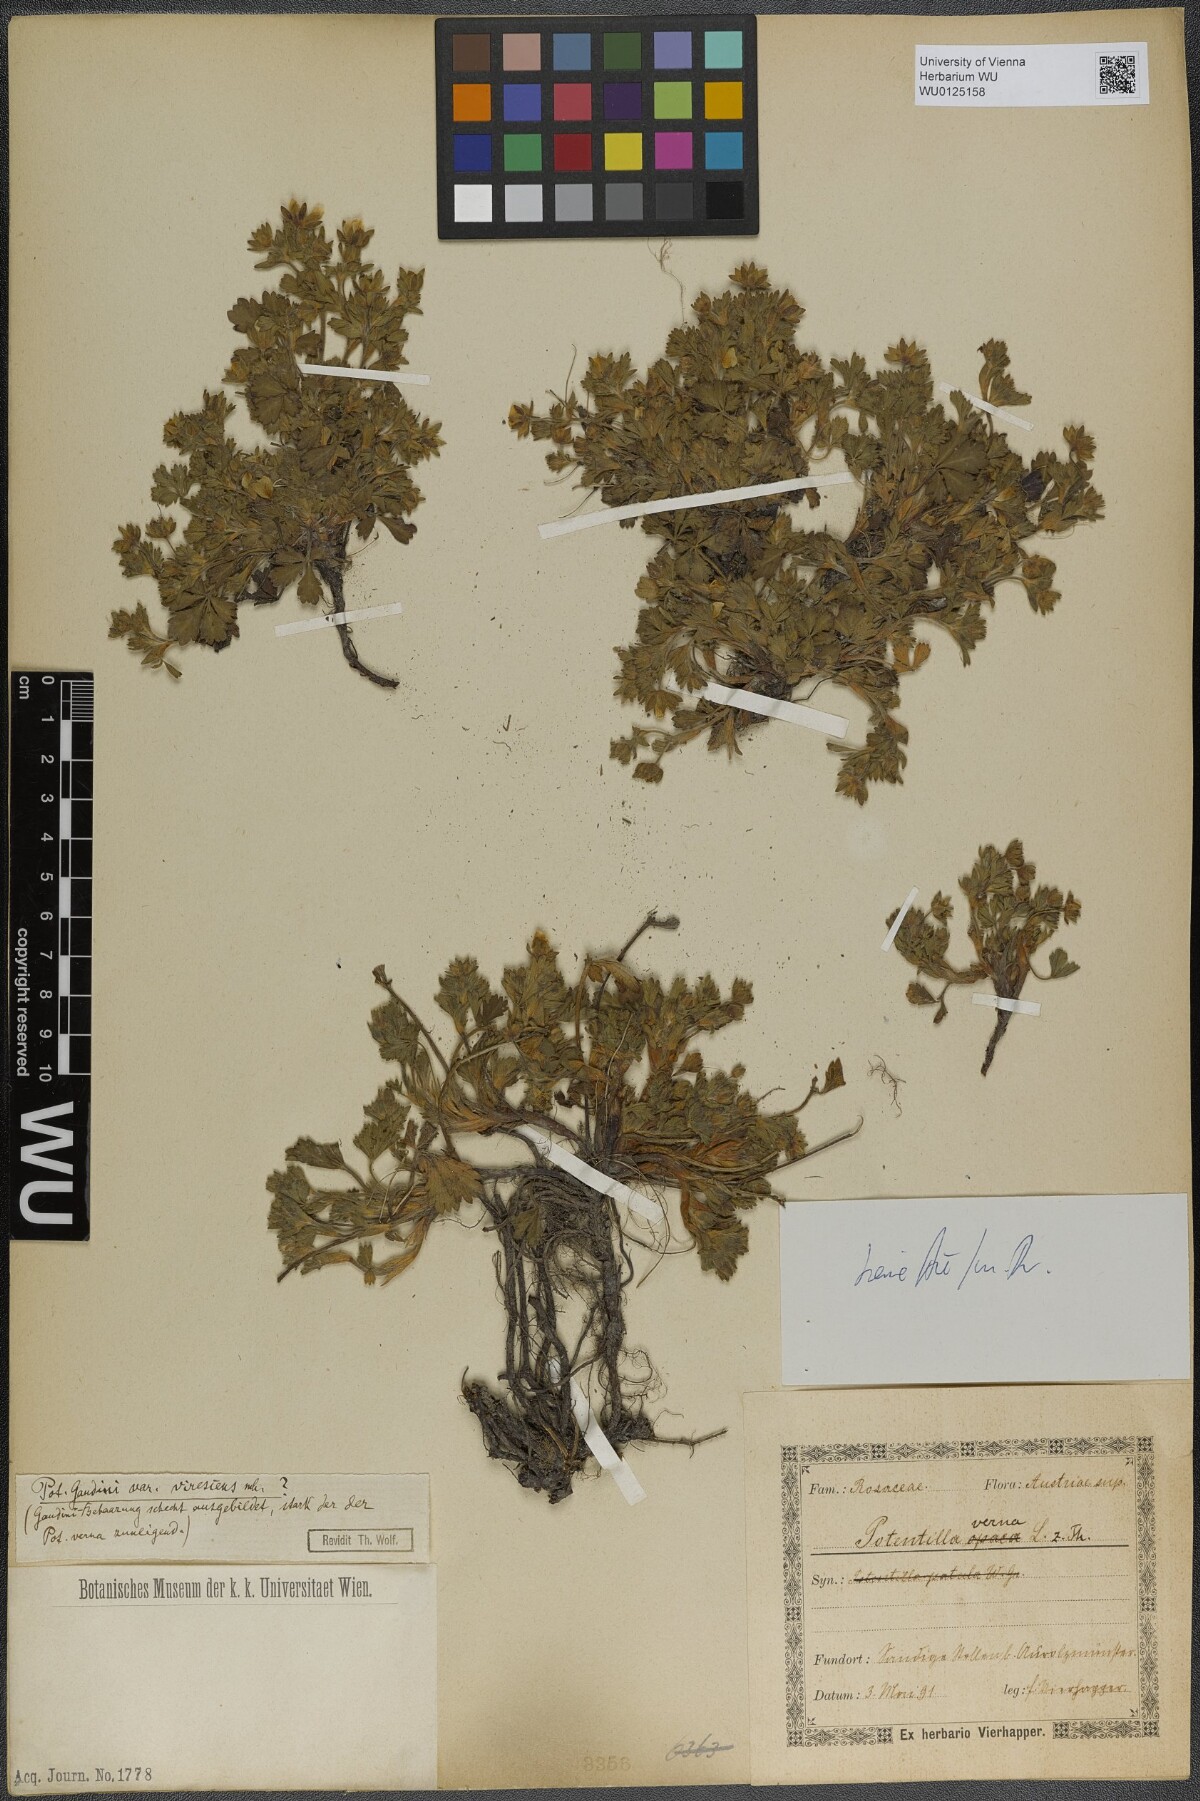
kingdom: Plantae
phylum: Tracheophyta
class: Magnoliopsida
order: Rosales
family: Rosaceae
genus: Potentilla
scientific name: Potentilla
